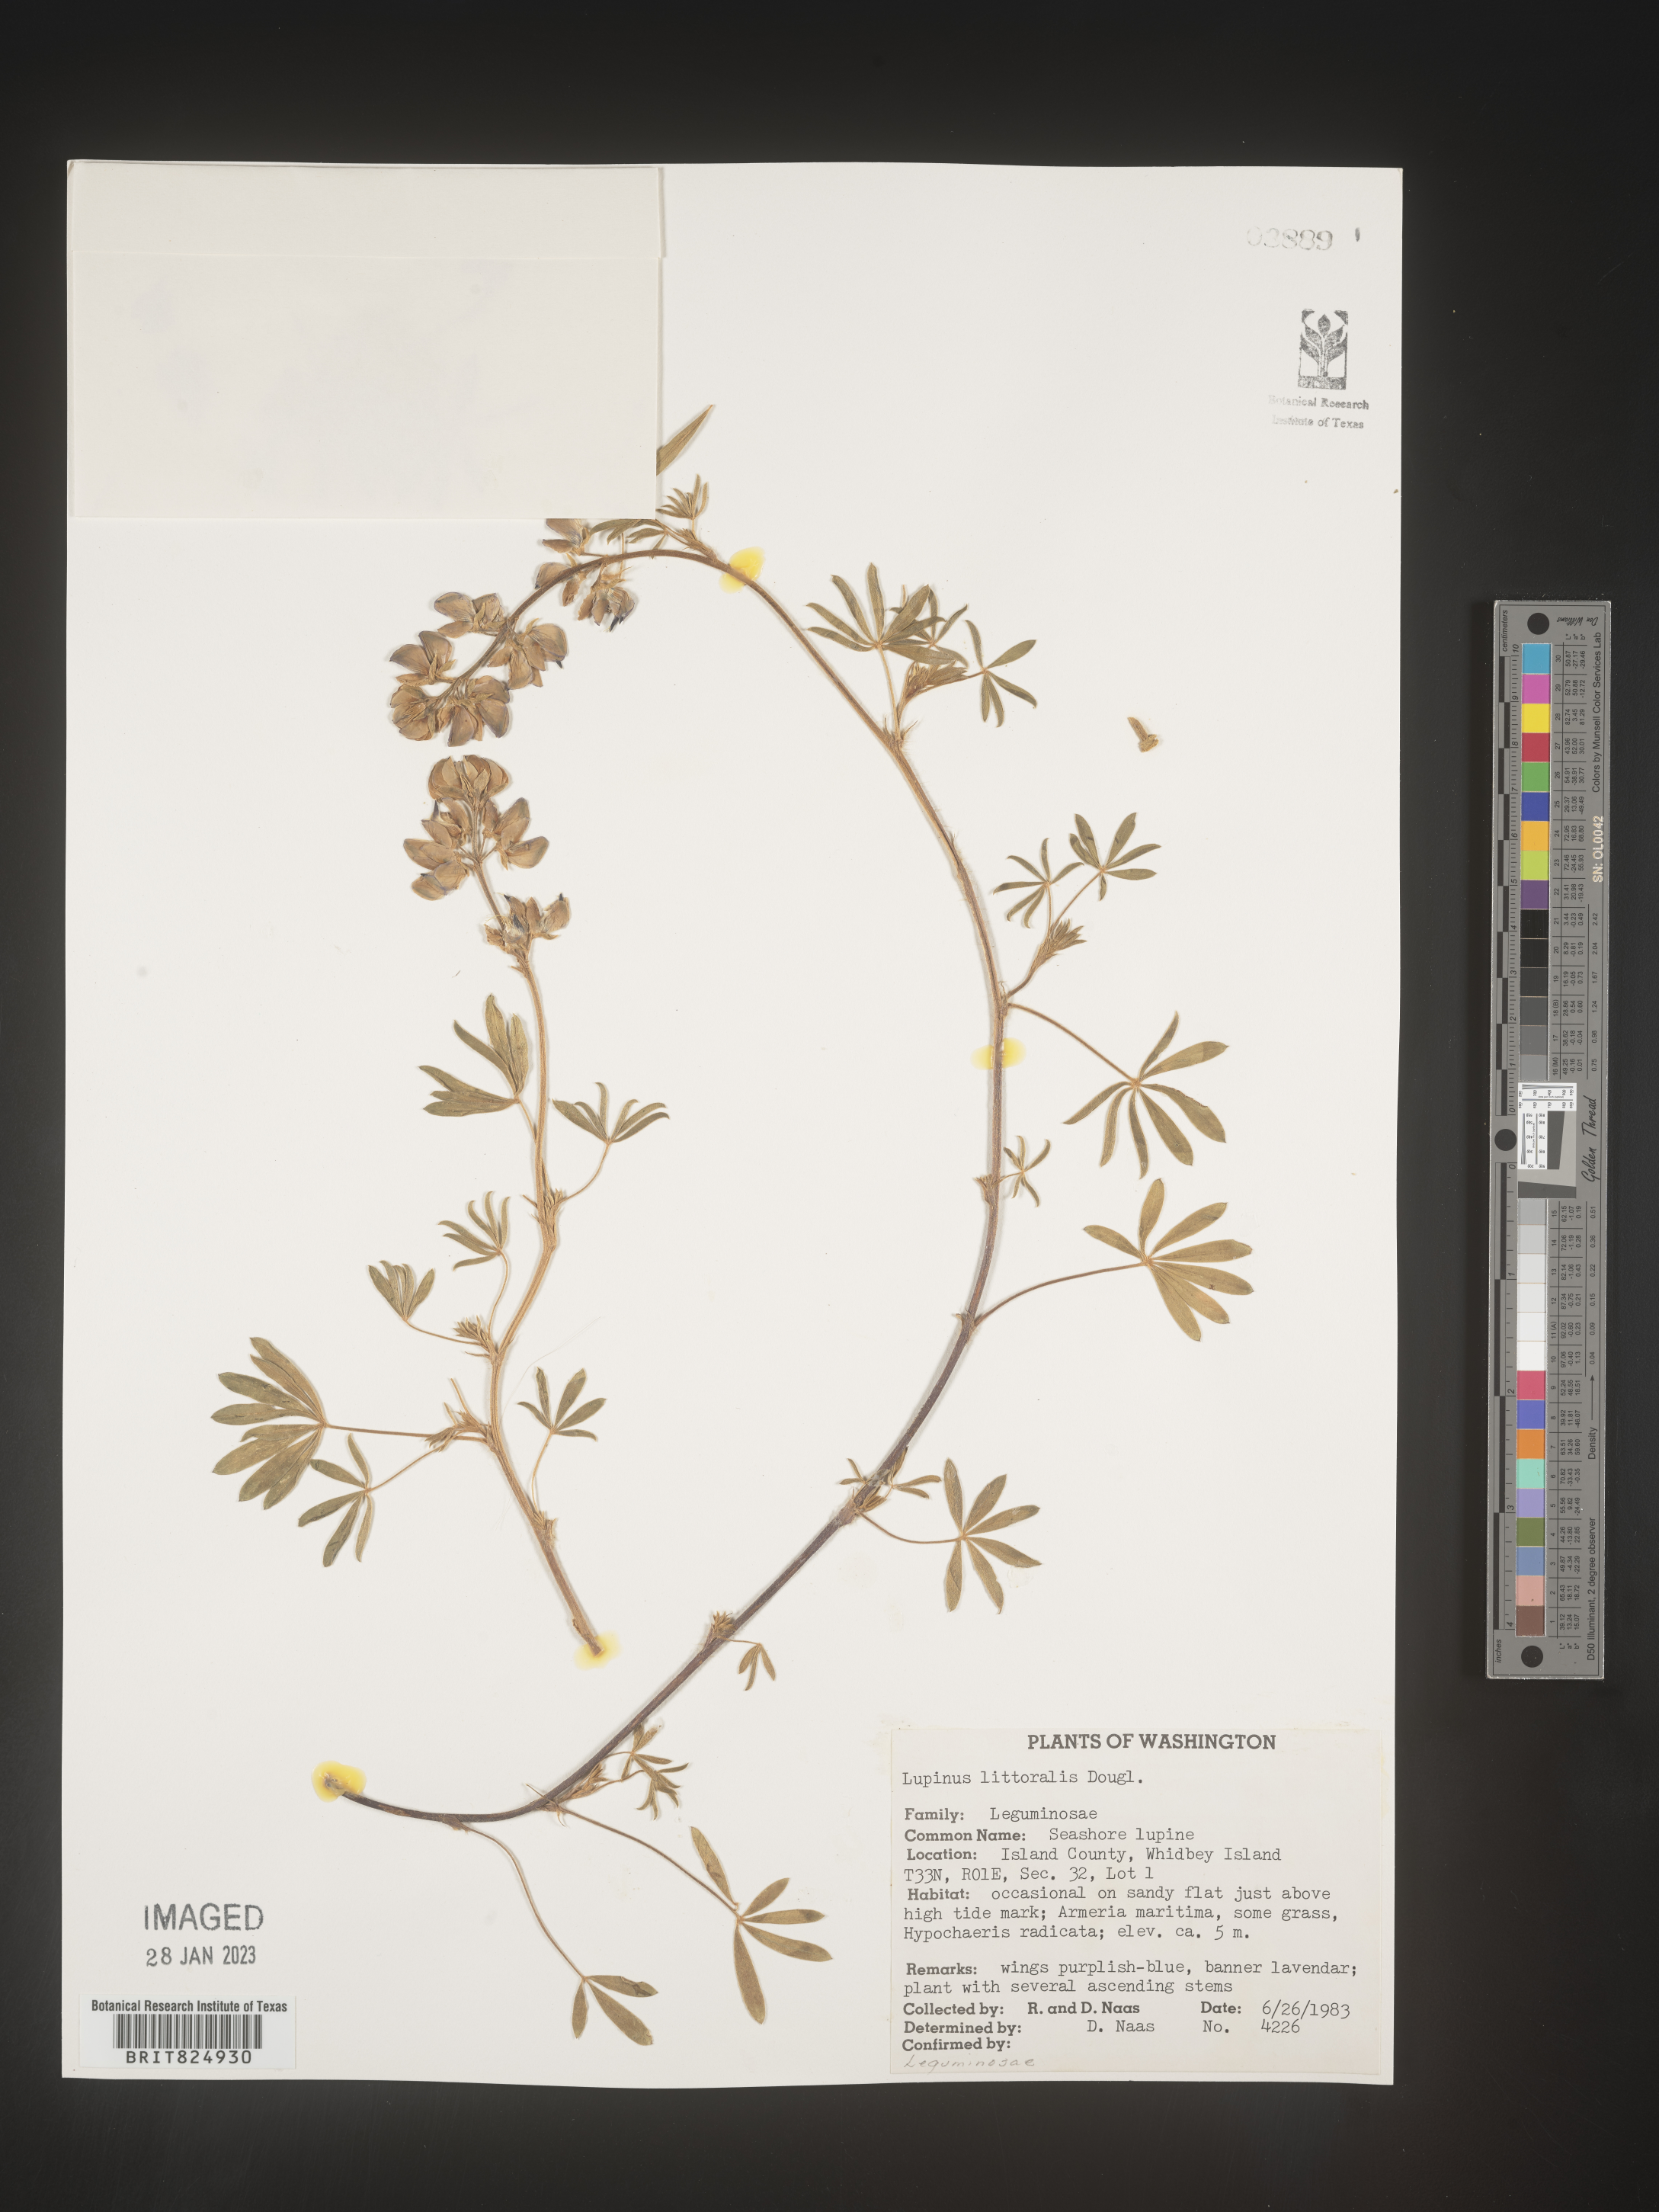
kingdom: Plantae
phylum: Tracheophyta
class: Magnoliopsida
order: Fabales
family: Fabaceae
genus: Lupinus
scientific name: Lupinus
